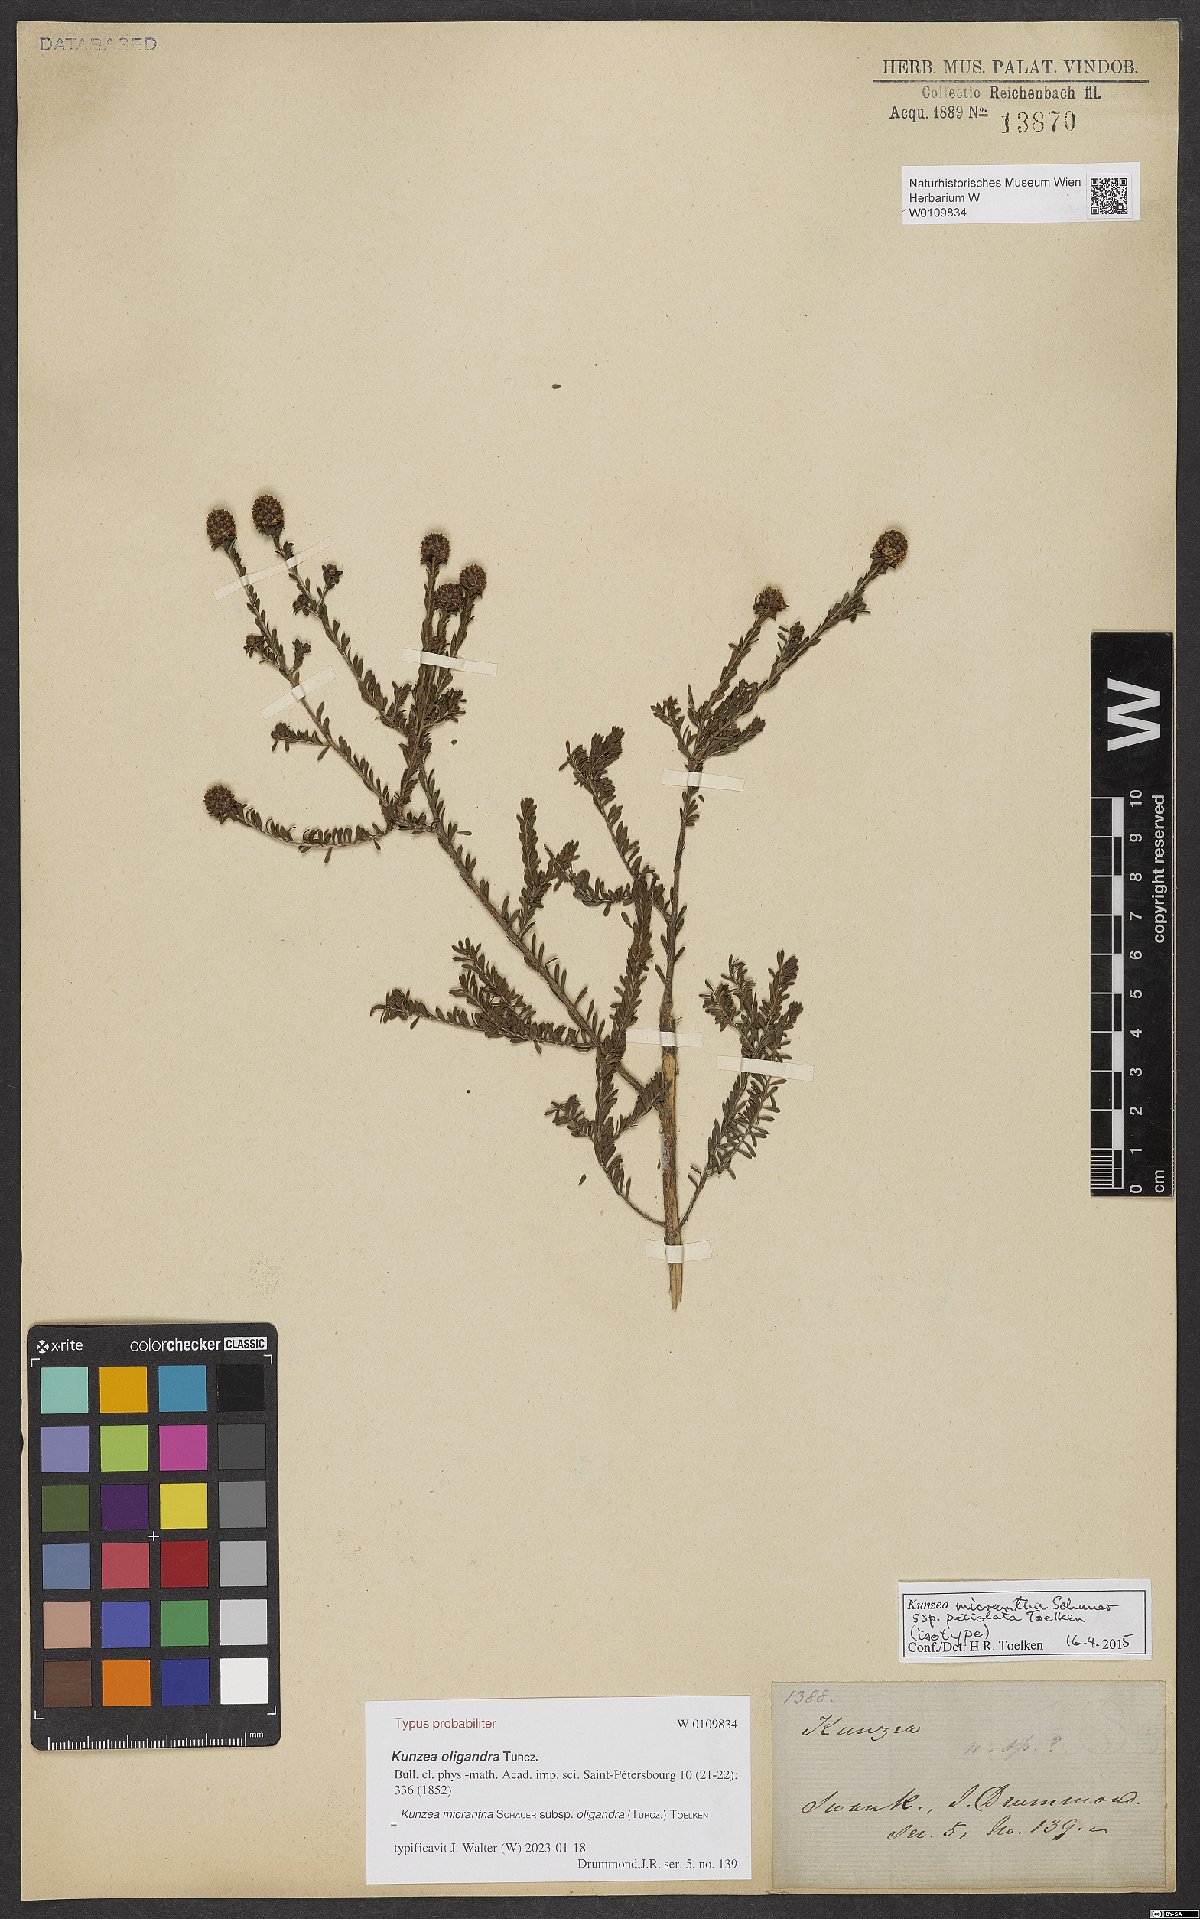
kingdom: Plantae
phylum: Tracheophyta
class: Magnoliopsida
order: Myrtales
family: Myrtaceae
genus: Kunzea
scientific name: Kunzea micrantha
